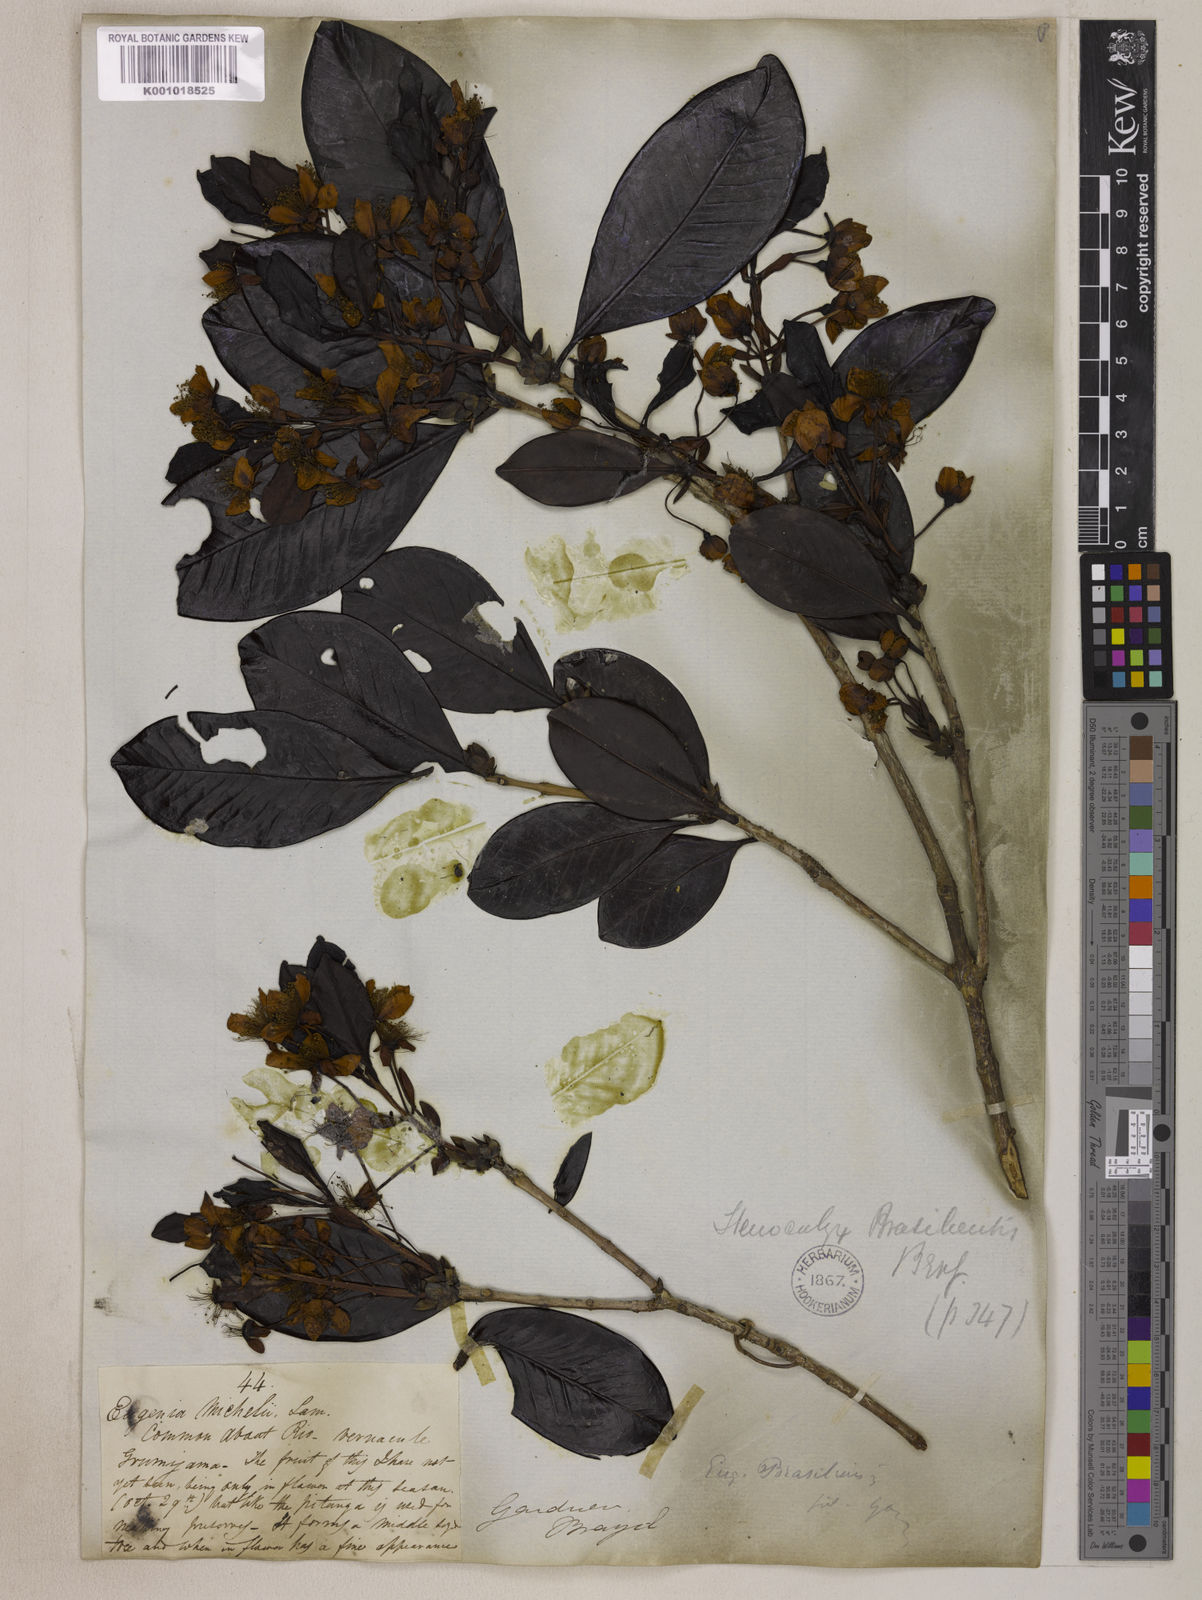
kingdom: Plantae
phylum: Tracheophyta
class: Magnoliopsida
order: Myrtales
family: Myrtaceae
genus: Eugenia
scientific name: Eugenia brasiliensis
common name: Grumichama
